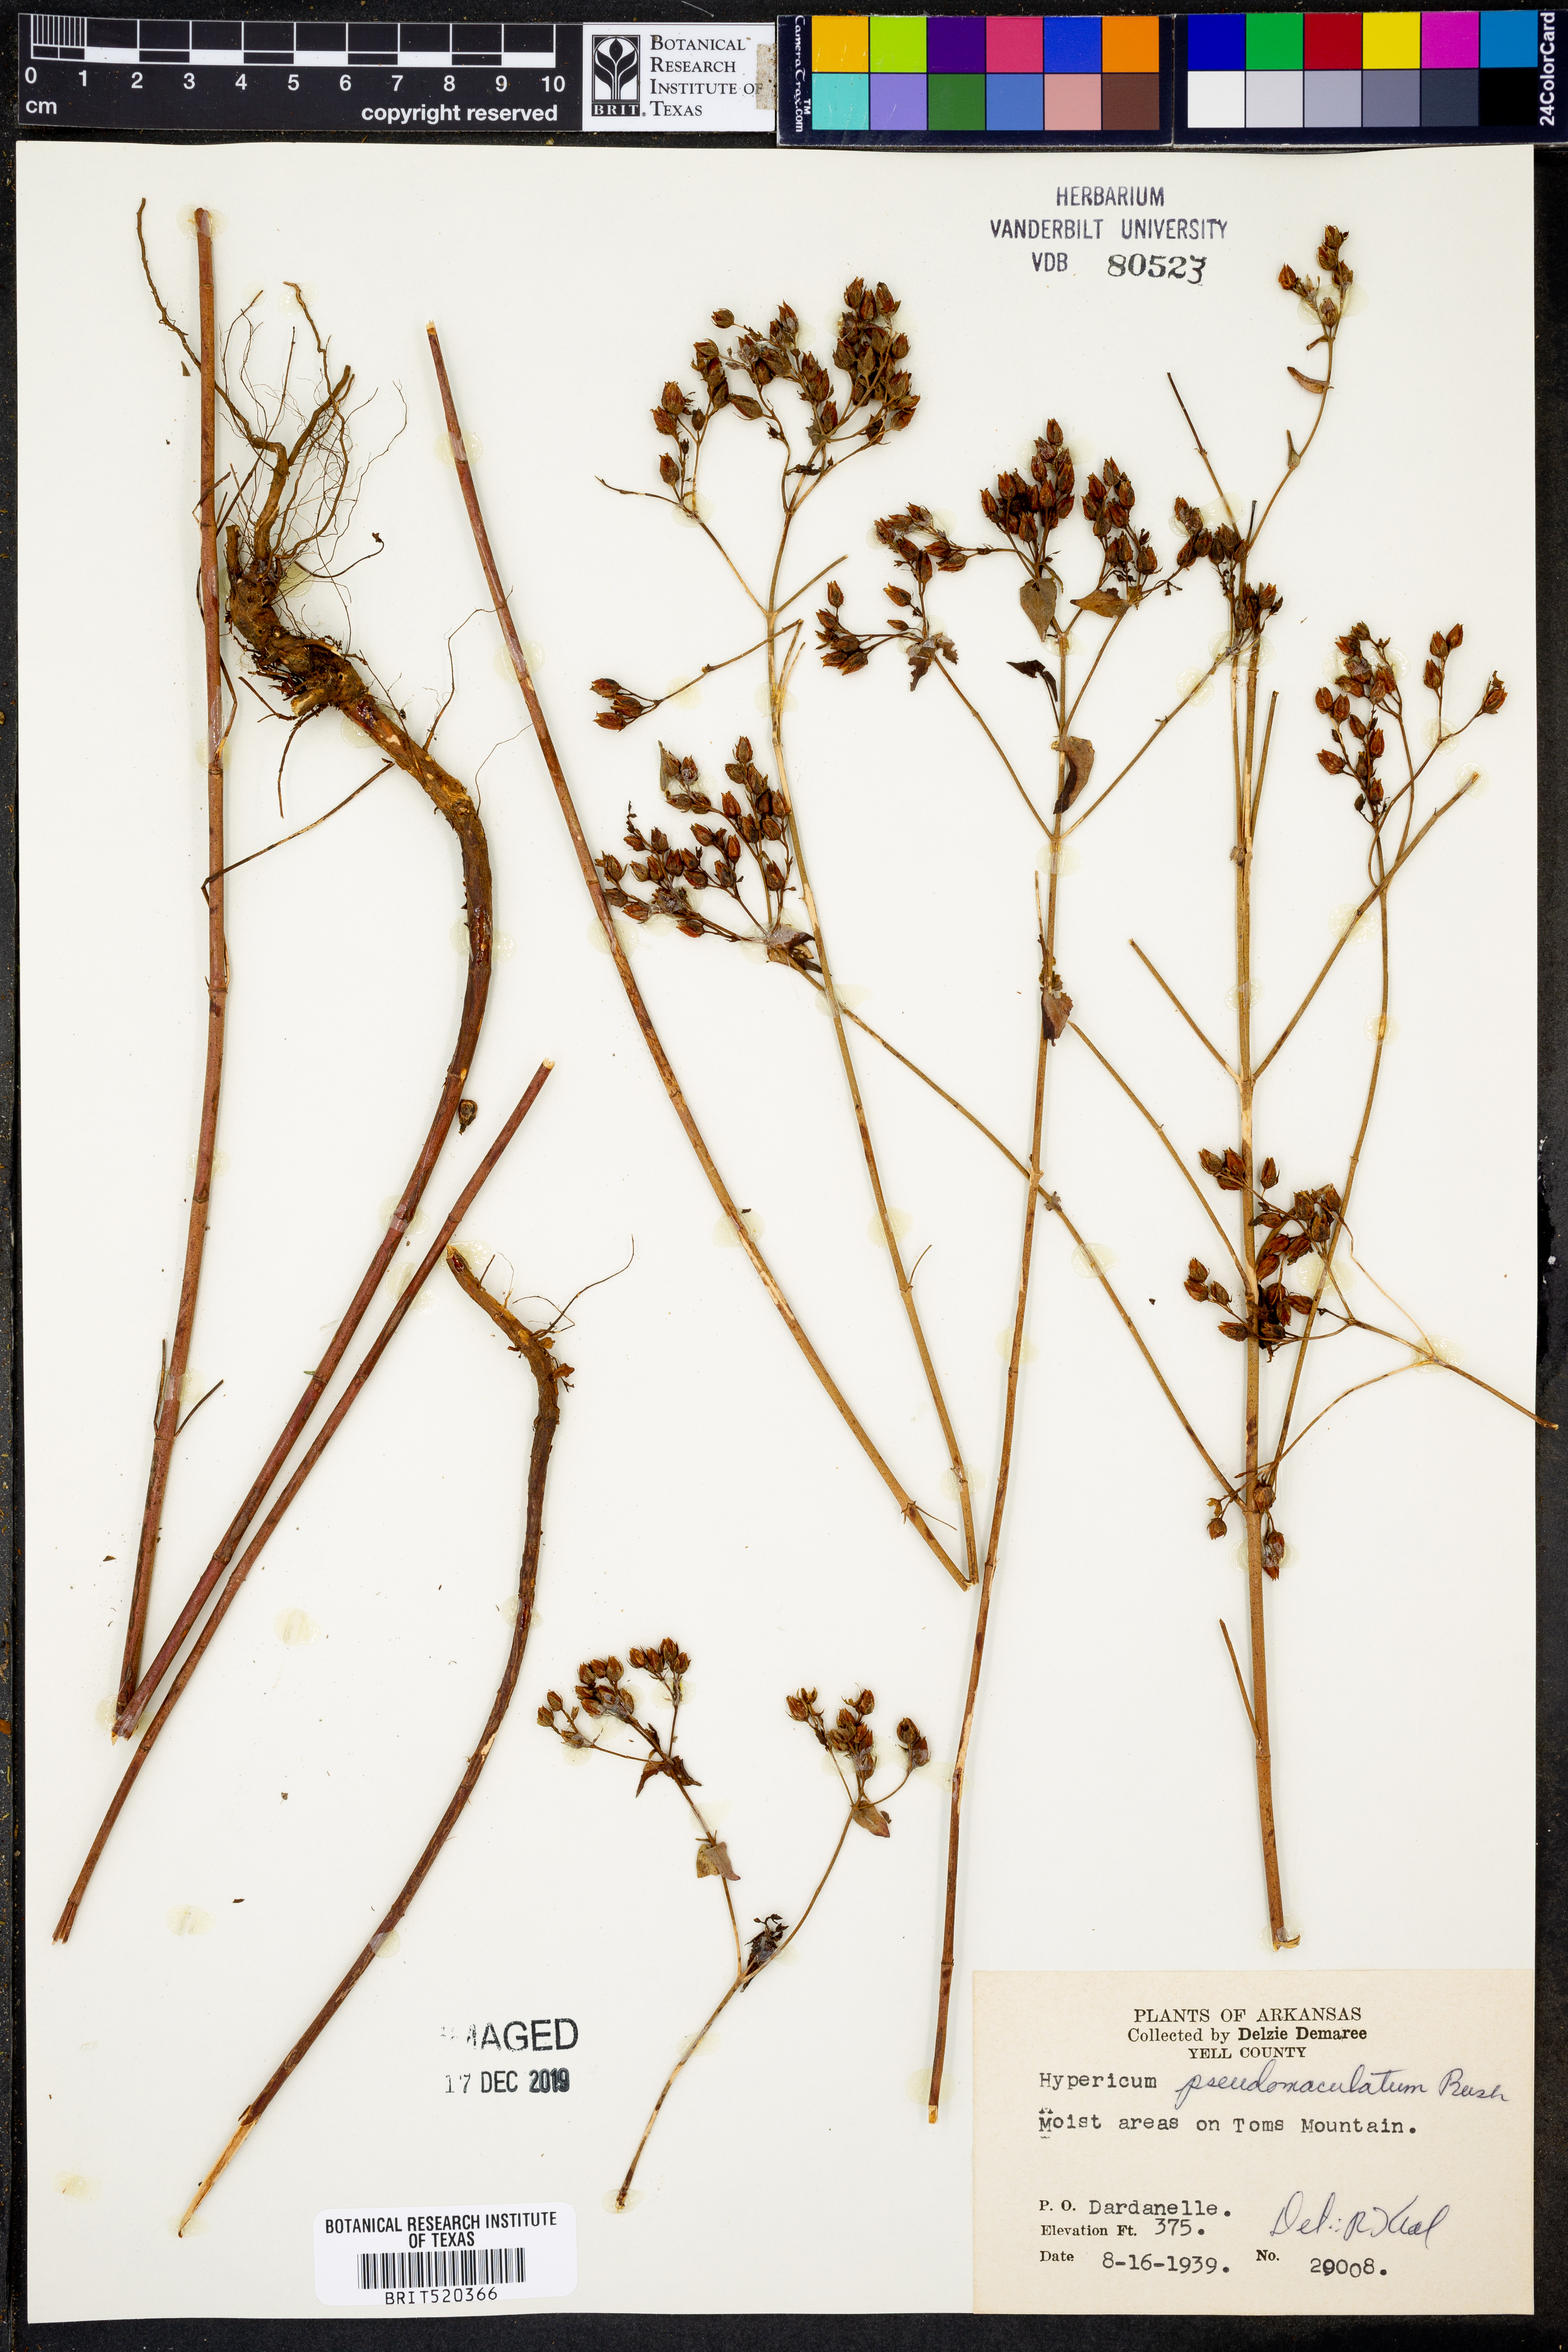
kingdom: Plantae
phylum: Tracheophyta
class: Magnoliopsida
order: Malpighiales
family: Hypericaceae
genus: Hypericum
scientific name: Hypericum pseudomaculatum
